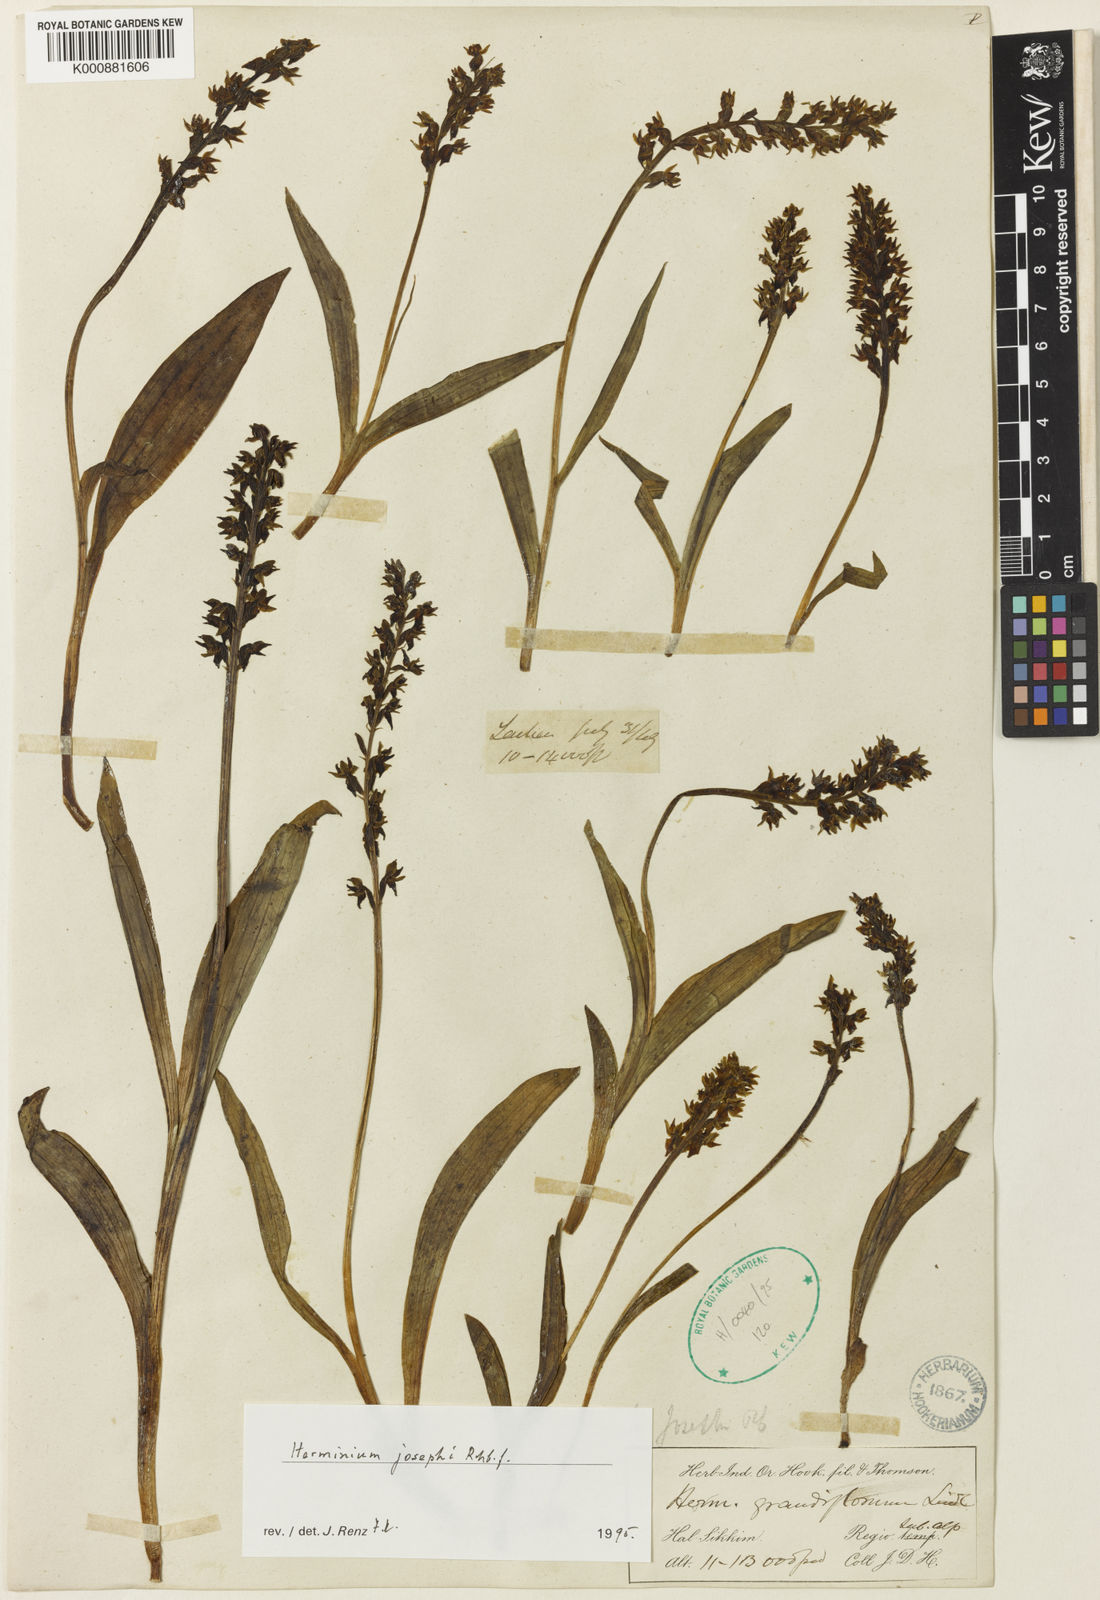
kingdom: Plantae
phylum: Tracheophyta
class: Liliopsida
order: Asparagales
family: Orchidaceae
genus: Herminium
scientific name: Herminium josephi
